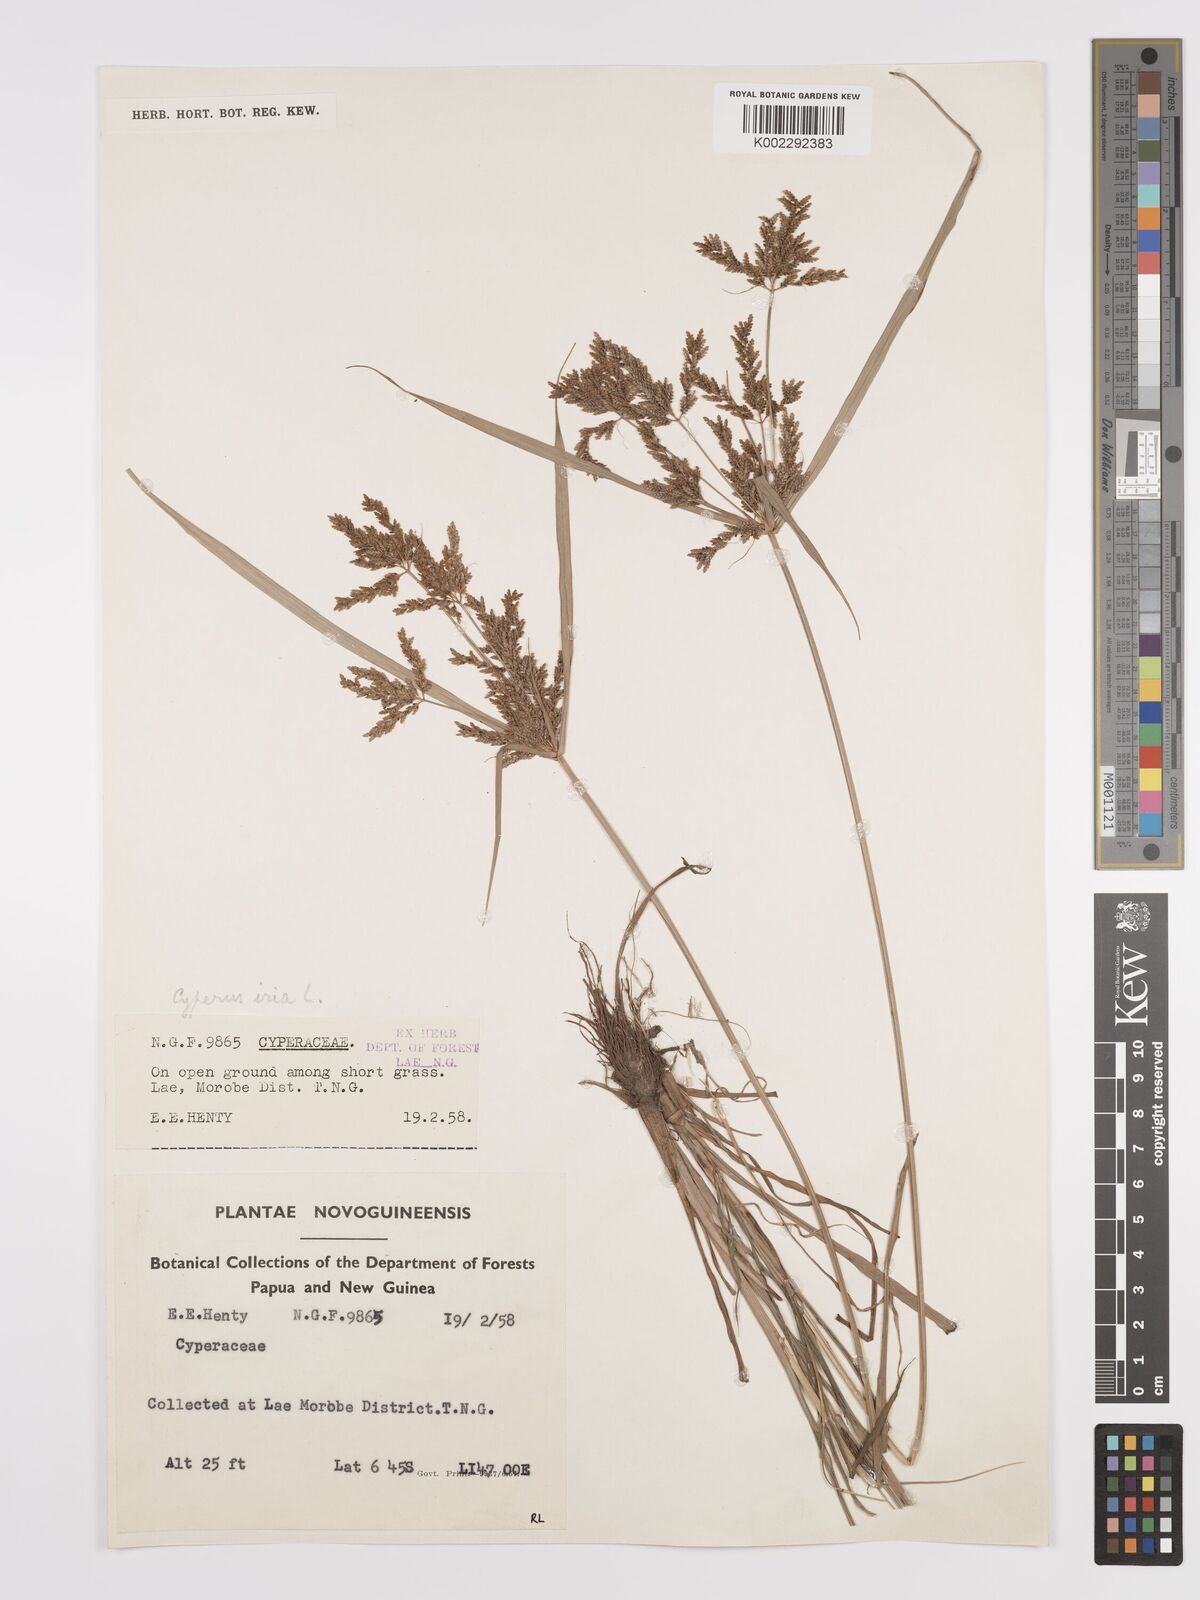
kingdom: Plantae
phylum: Tracheophyta
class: Liliopsida
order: Poales
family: Cyperaceae
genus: Cyperus
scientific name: Cyperus iria
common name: Ricefield flatsedge
